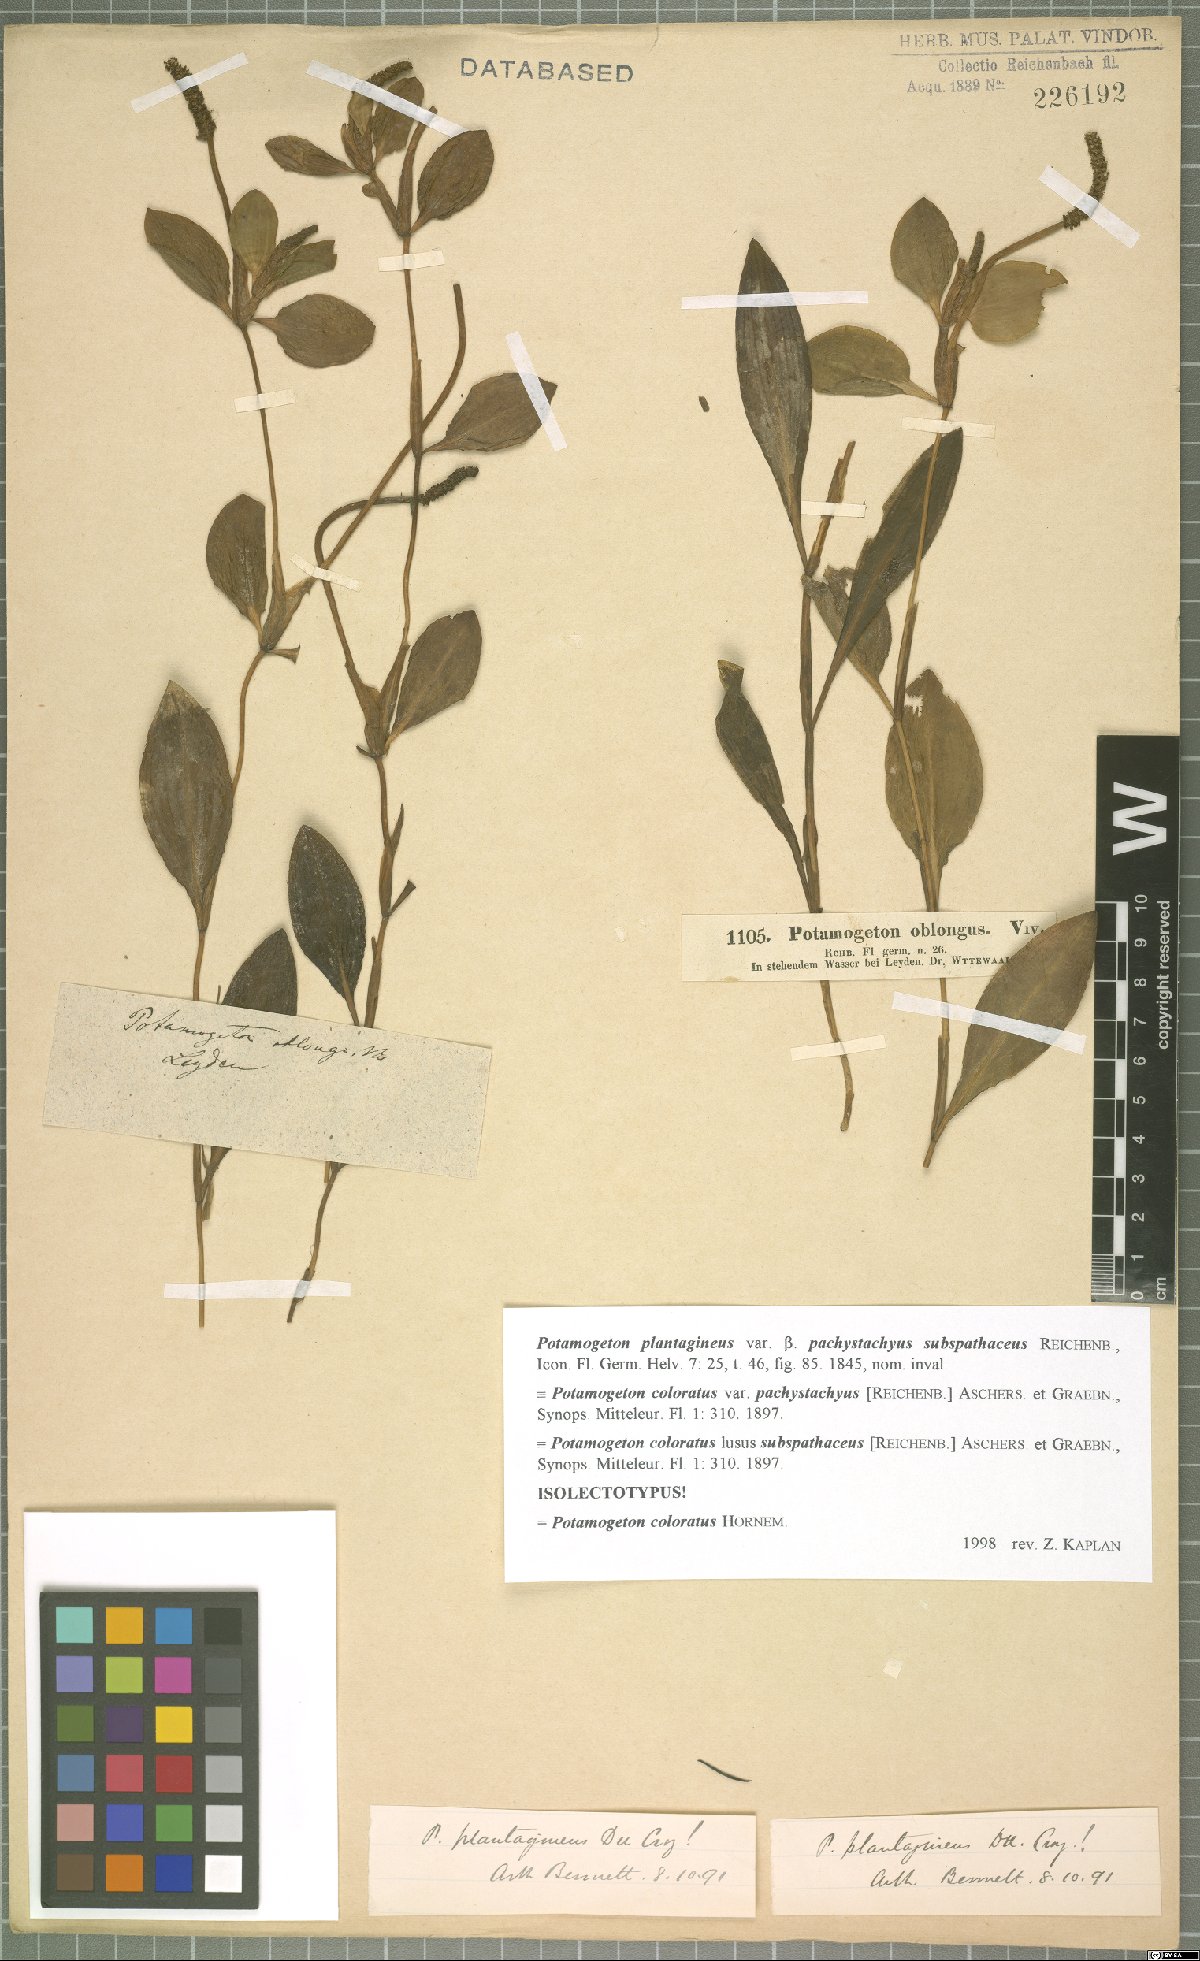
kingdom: Plantae
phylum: Tracheophyta
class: Liliopsida
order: Alismatales
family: Potamogetonaceae
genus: Potamogeton
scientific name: Potamogeton coloratus
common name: Fen pondweed
